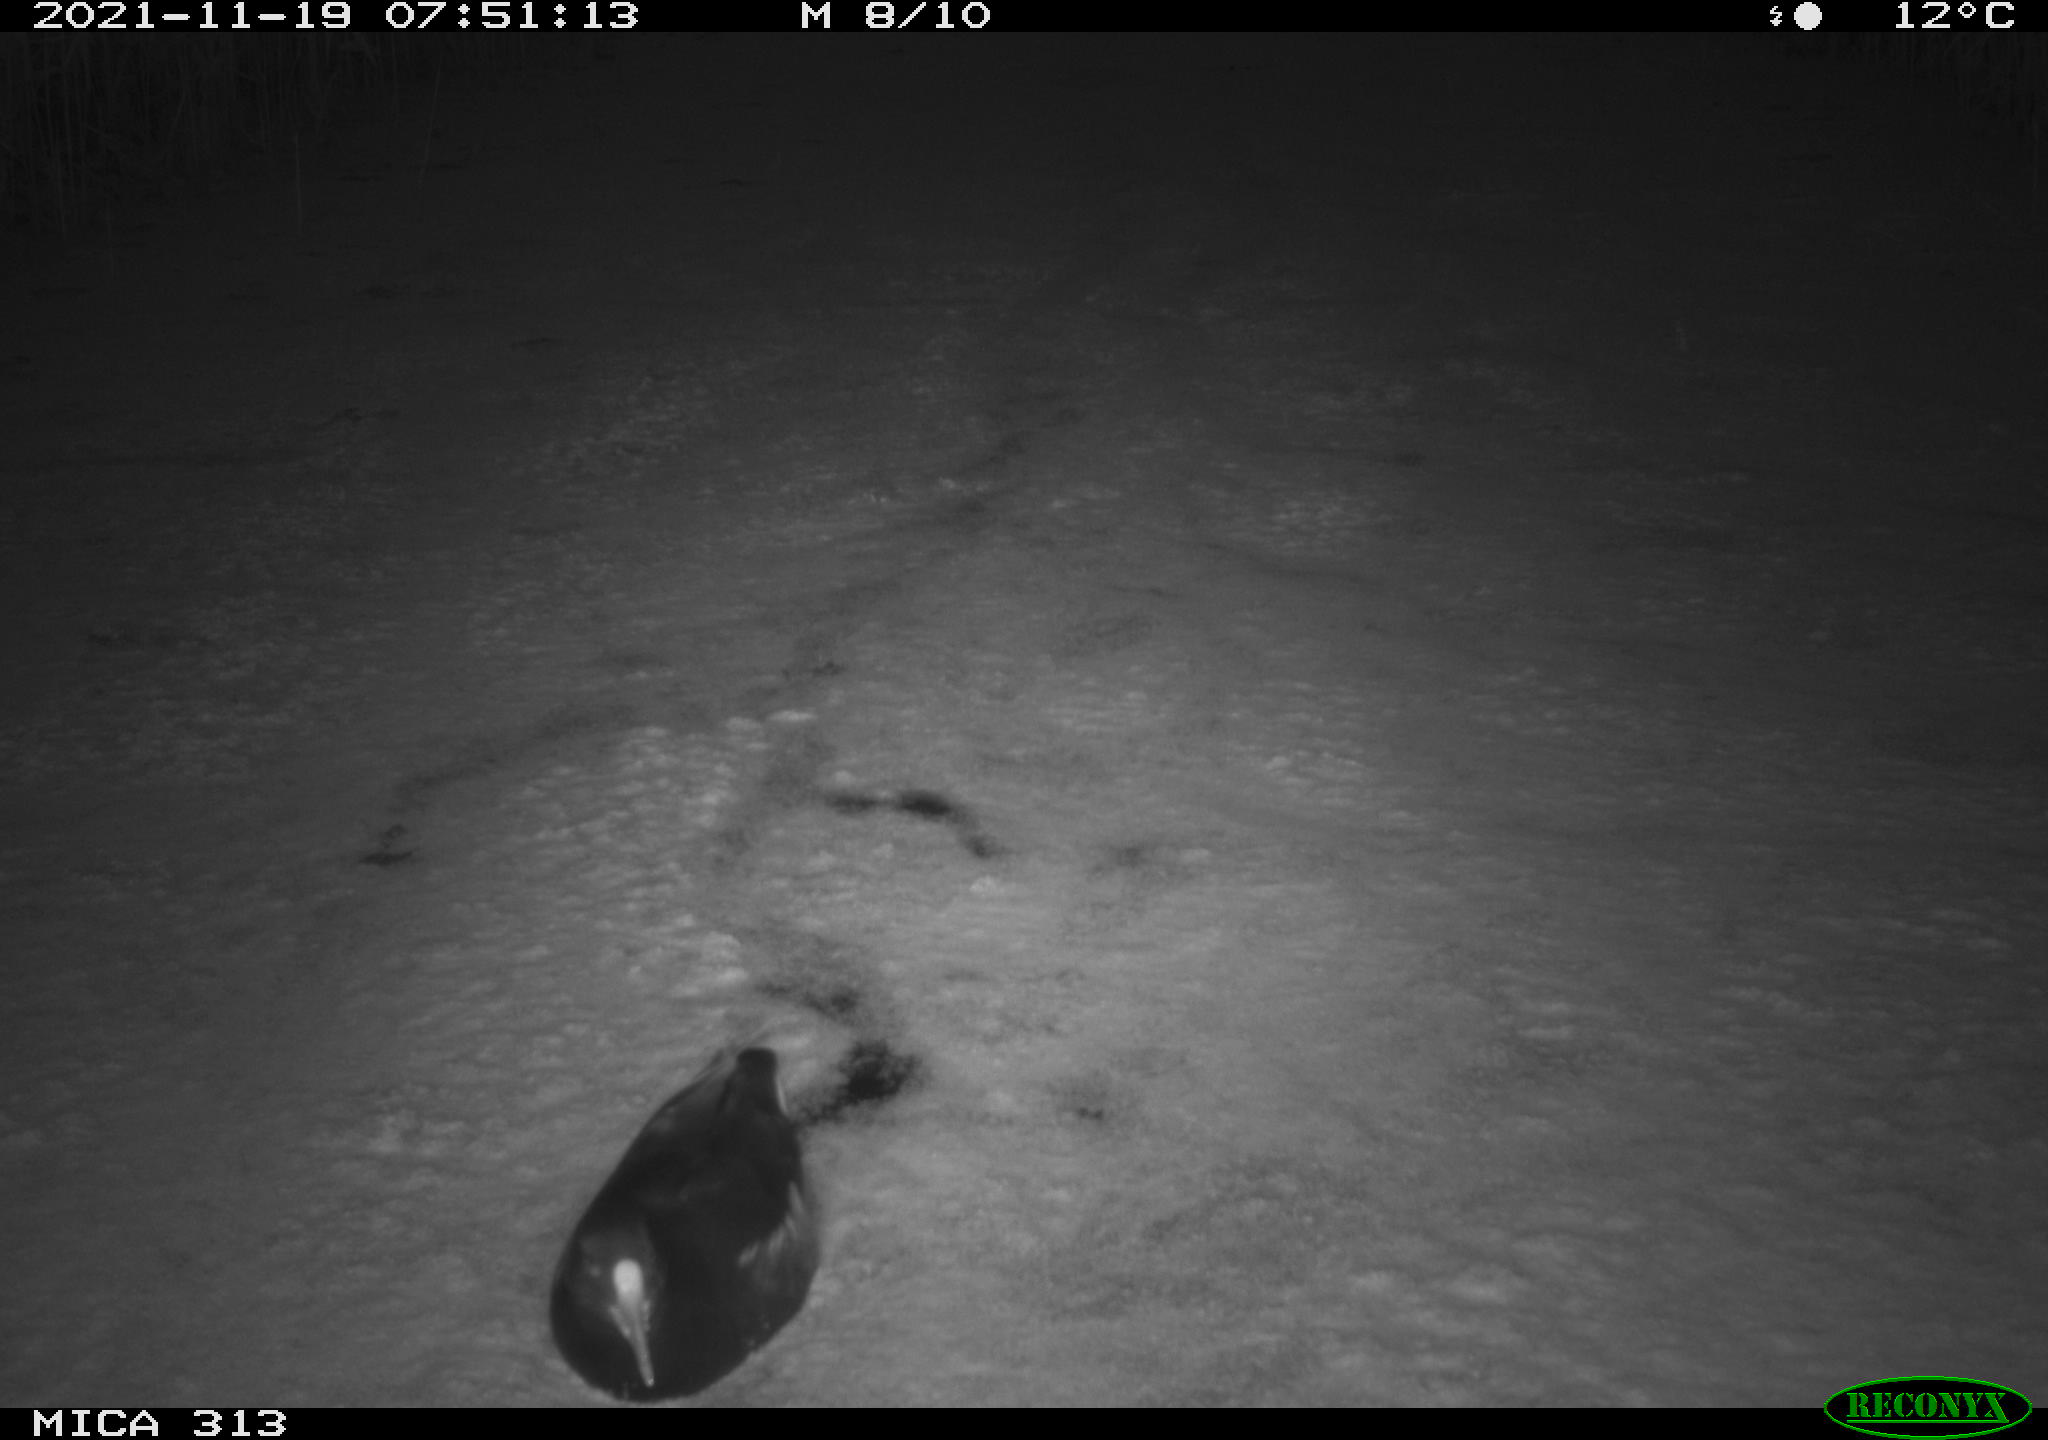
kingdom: Animalia
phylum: Chordata
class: Aves
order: Gruiformes
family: Rallidae
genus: Gallinula
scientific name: Gallinula chloropus
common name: Common moorhen
